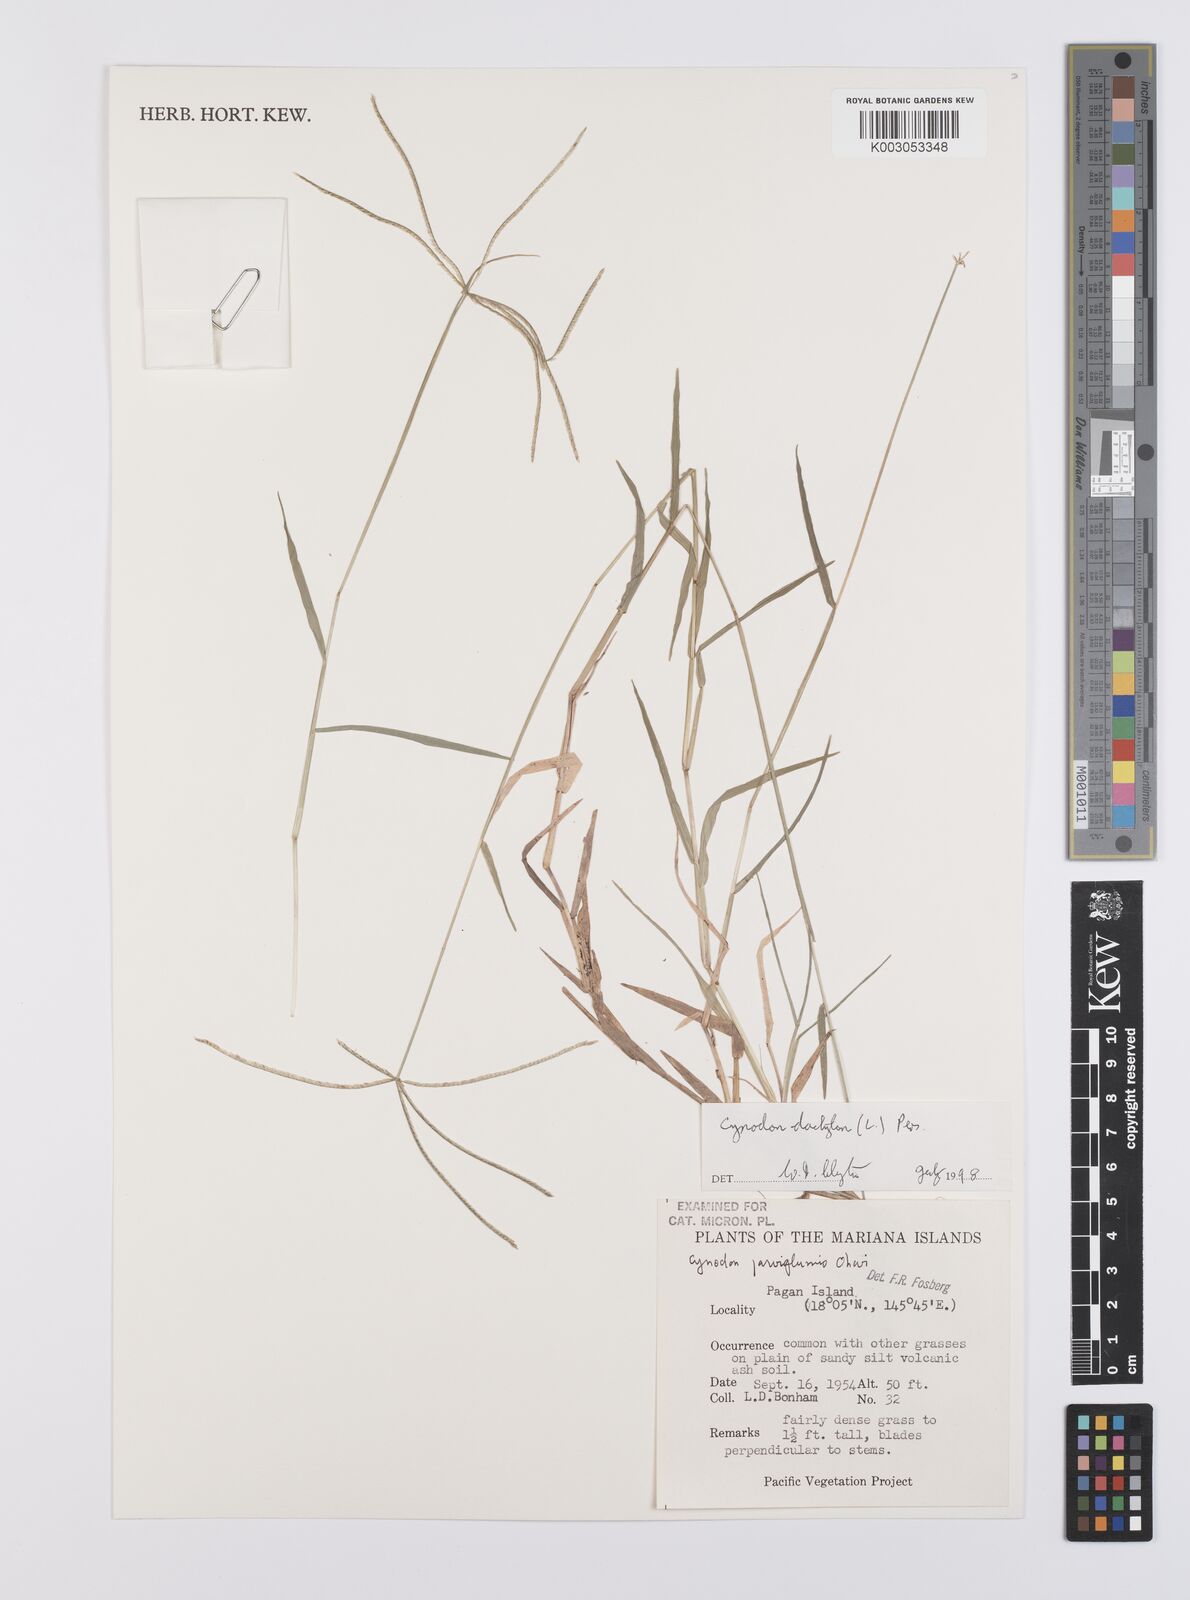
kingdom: Plantae
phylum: Tracheophyta
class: Liliopsida
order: Poales
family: Poaceae
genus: Cynodon
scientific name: Cynodon dactylon
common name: Bermuda grass
